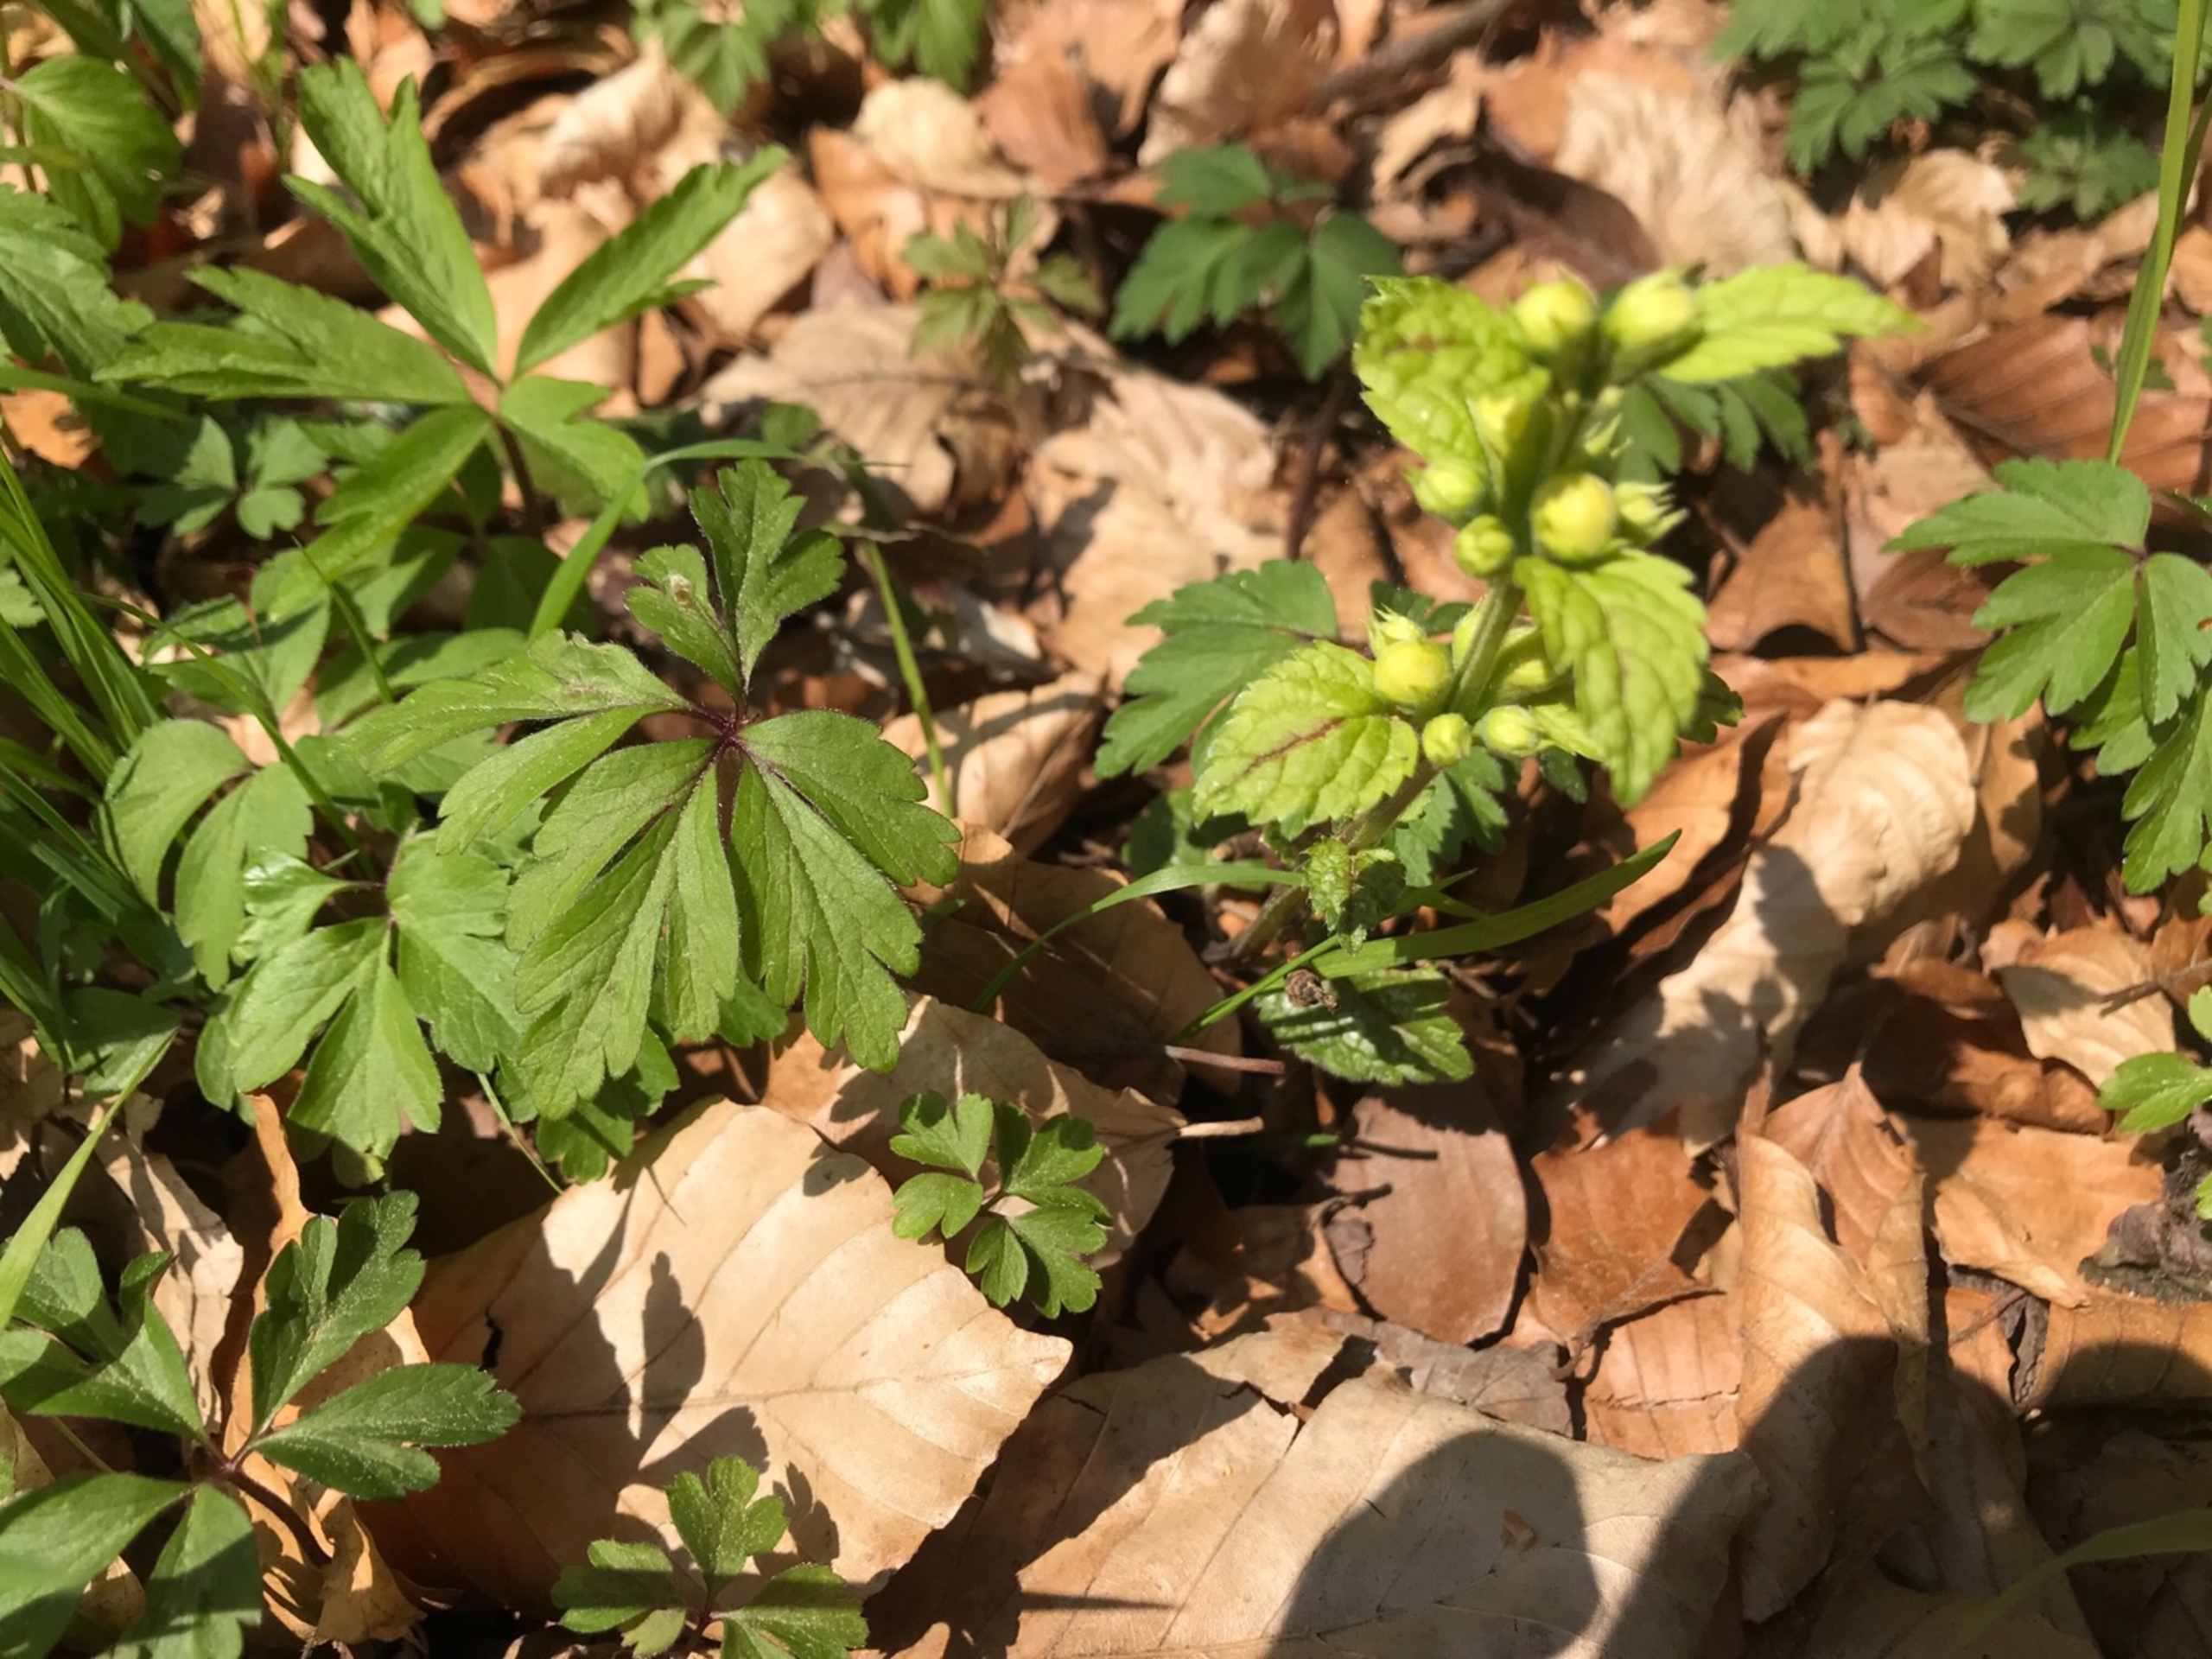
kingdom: Plantae
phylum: Tracheophyta
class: Magnoliopsida
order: Lamiales
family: Lamiaceae
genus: Lamium
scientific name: Lamium galeobdolon
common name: Guldnælde
